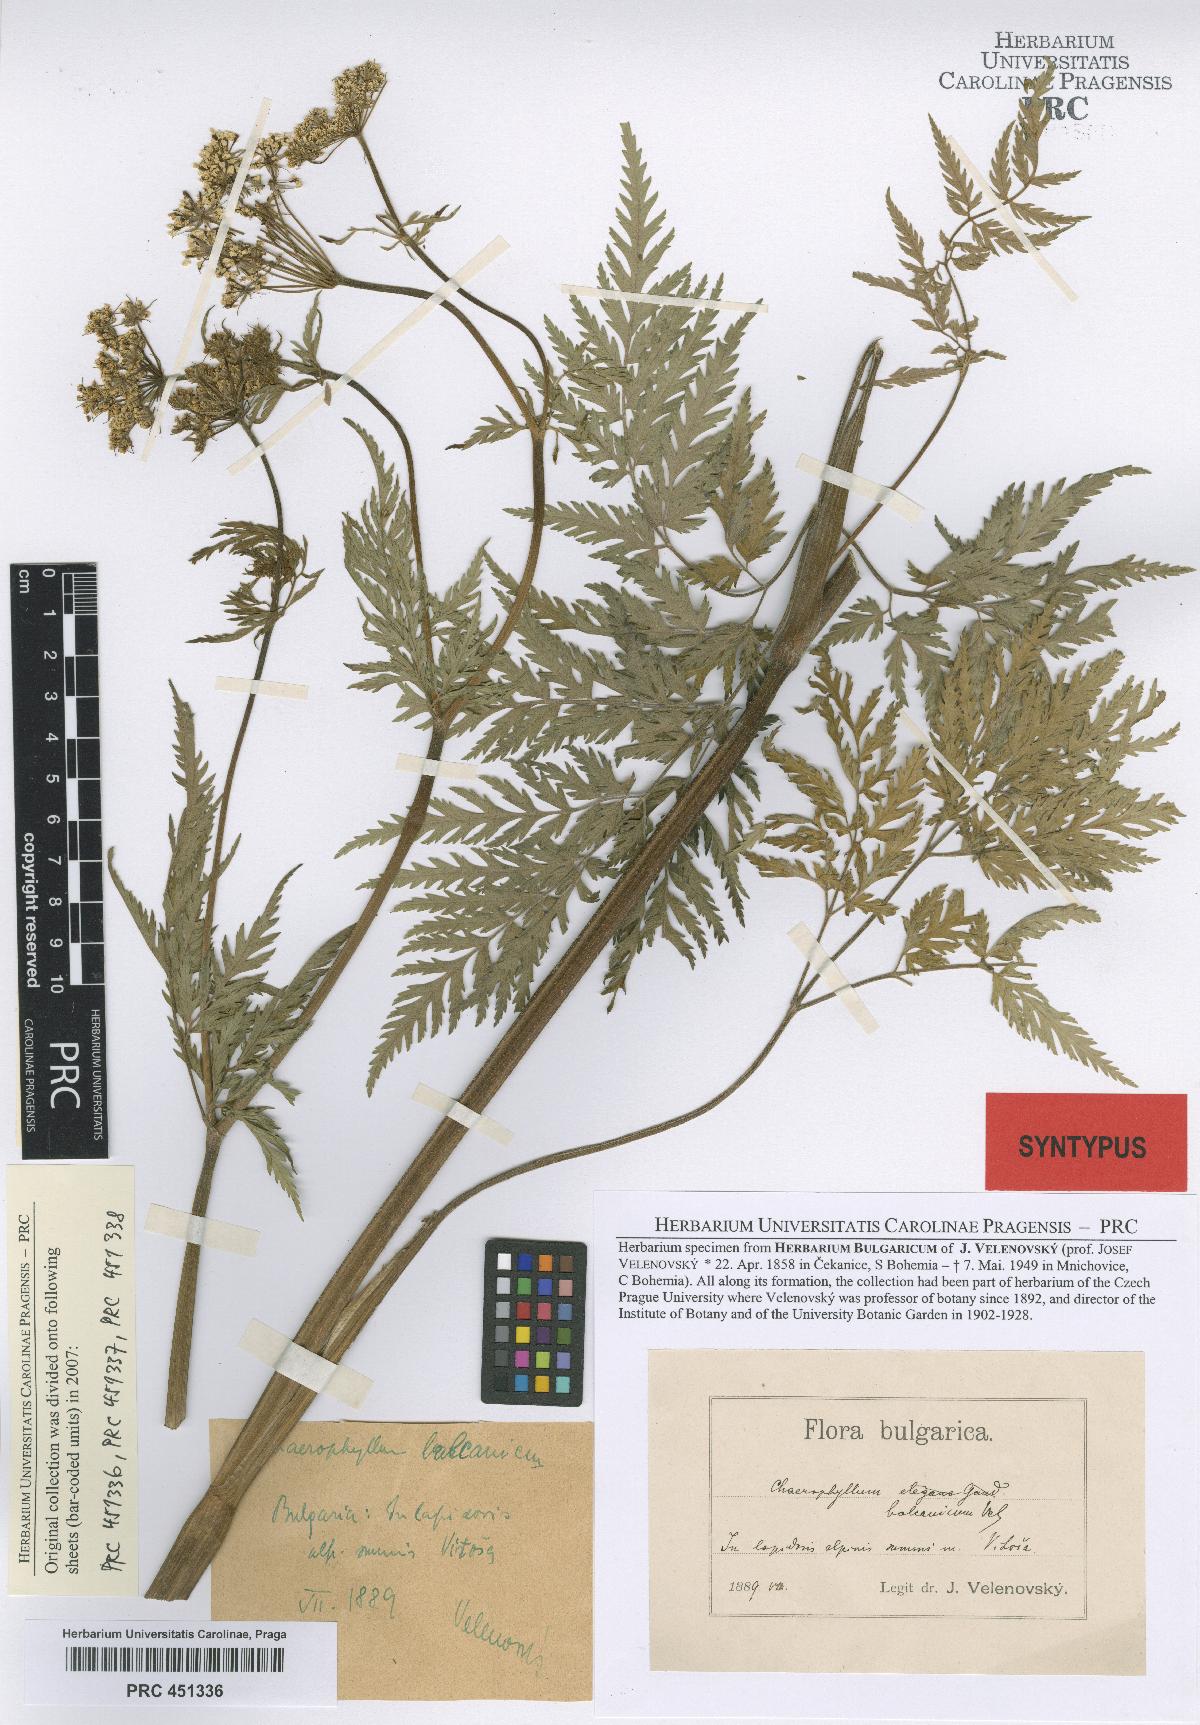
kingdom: Plantae
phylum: Tracheophyta
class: Magnoliopsida
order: Apiales
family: Apiaceae
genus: Geocaryum
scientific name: Geocaryum capillifolium
